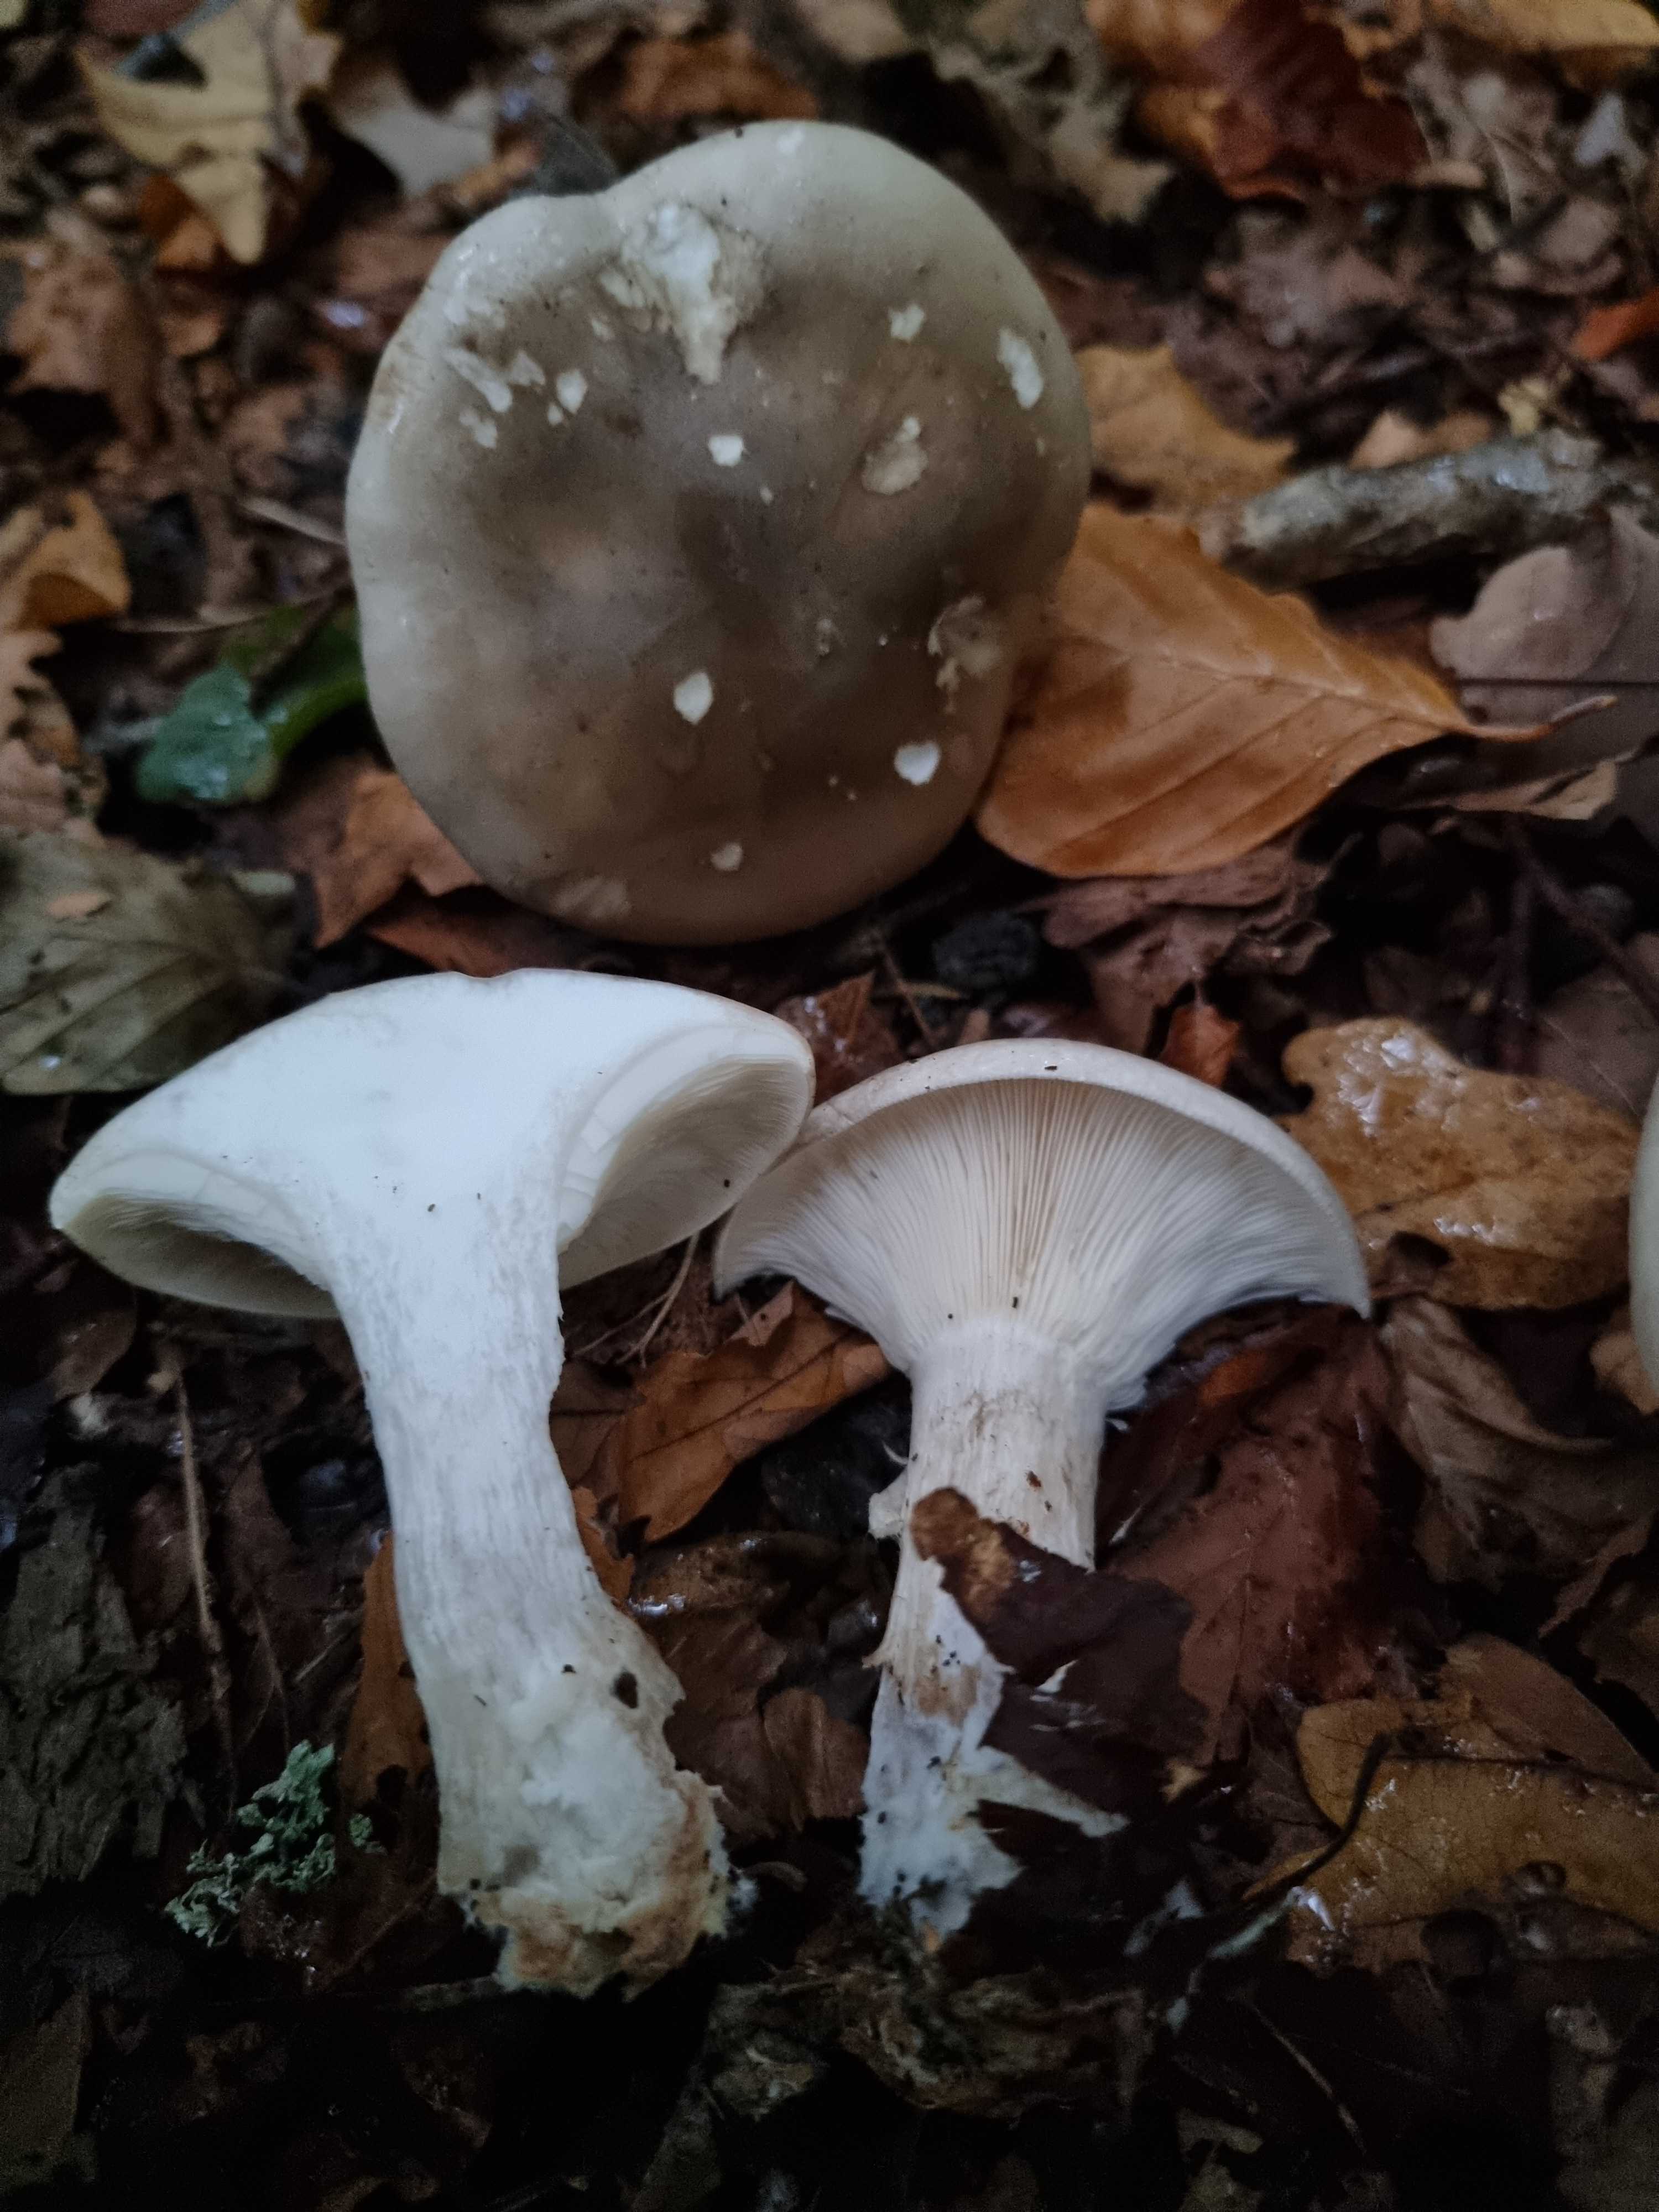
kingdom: Fungi
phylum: Basidiomycota
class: Agaricomycetes
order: Agaricales
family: Tricholomataceae
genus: Clitocybe
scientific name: Clitocybe nebularis
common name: tåge-tragthat
